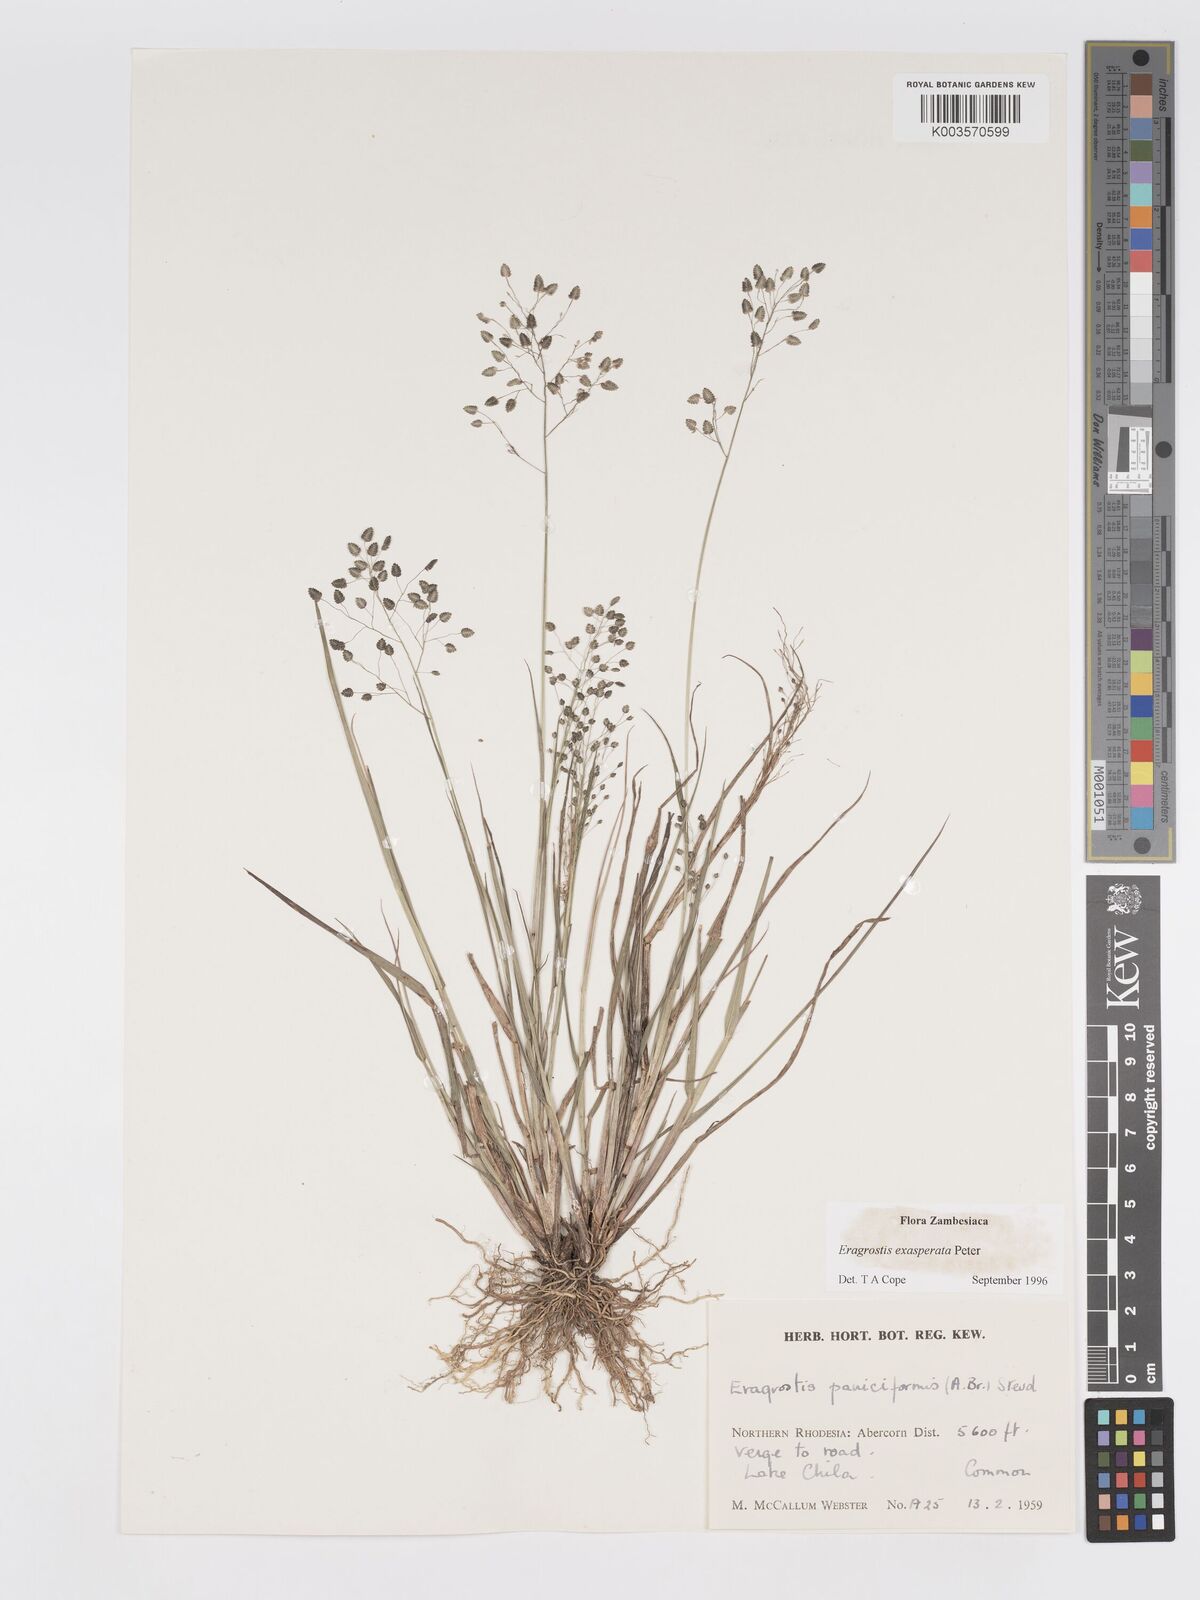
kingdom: Plantae
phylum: Tracheophyta
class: Liliopsida
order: Poales
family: Poaceae
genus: Eragrostis
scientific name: Eragrostis exasperata
